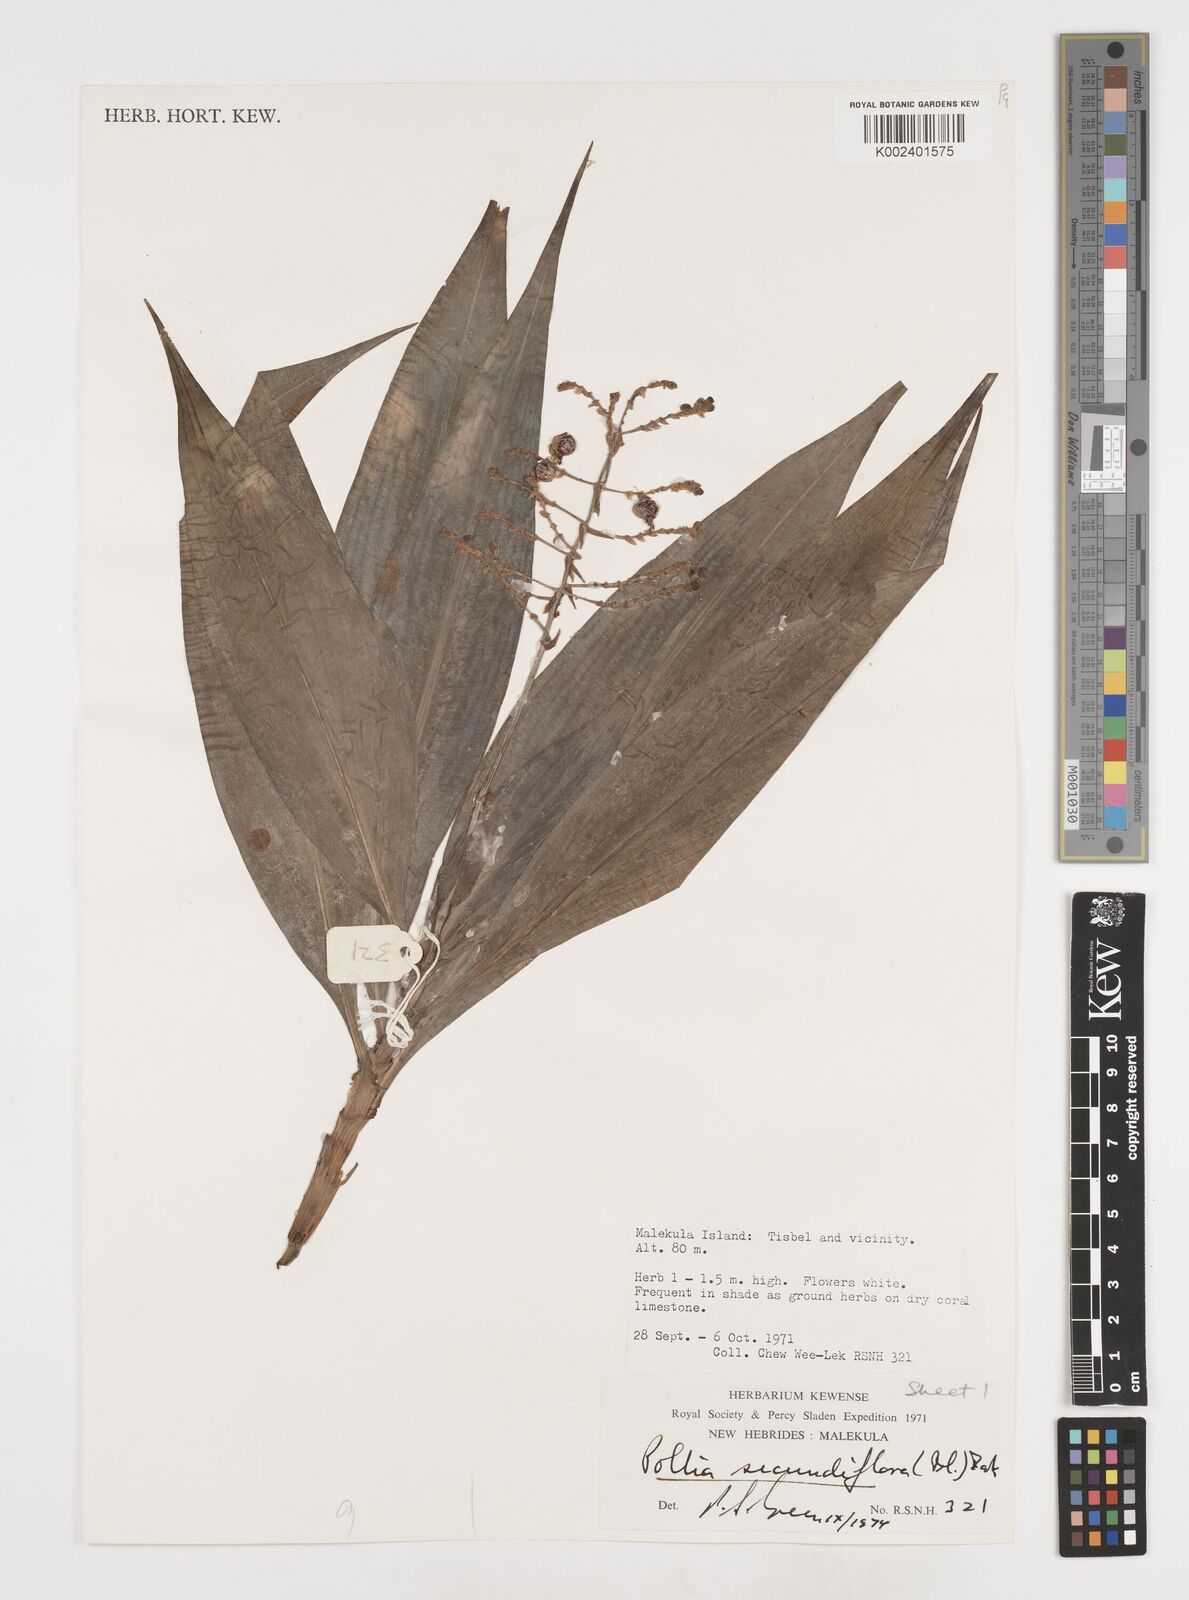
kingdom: Plantae
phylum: Tracheophyta
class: Liliopsida
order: Commelinales
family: Commelinaceae
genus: Pollia
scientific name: Pollia secundiflora
